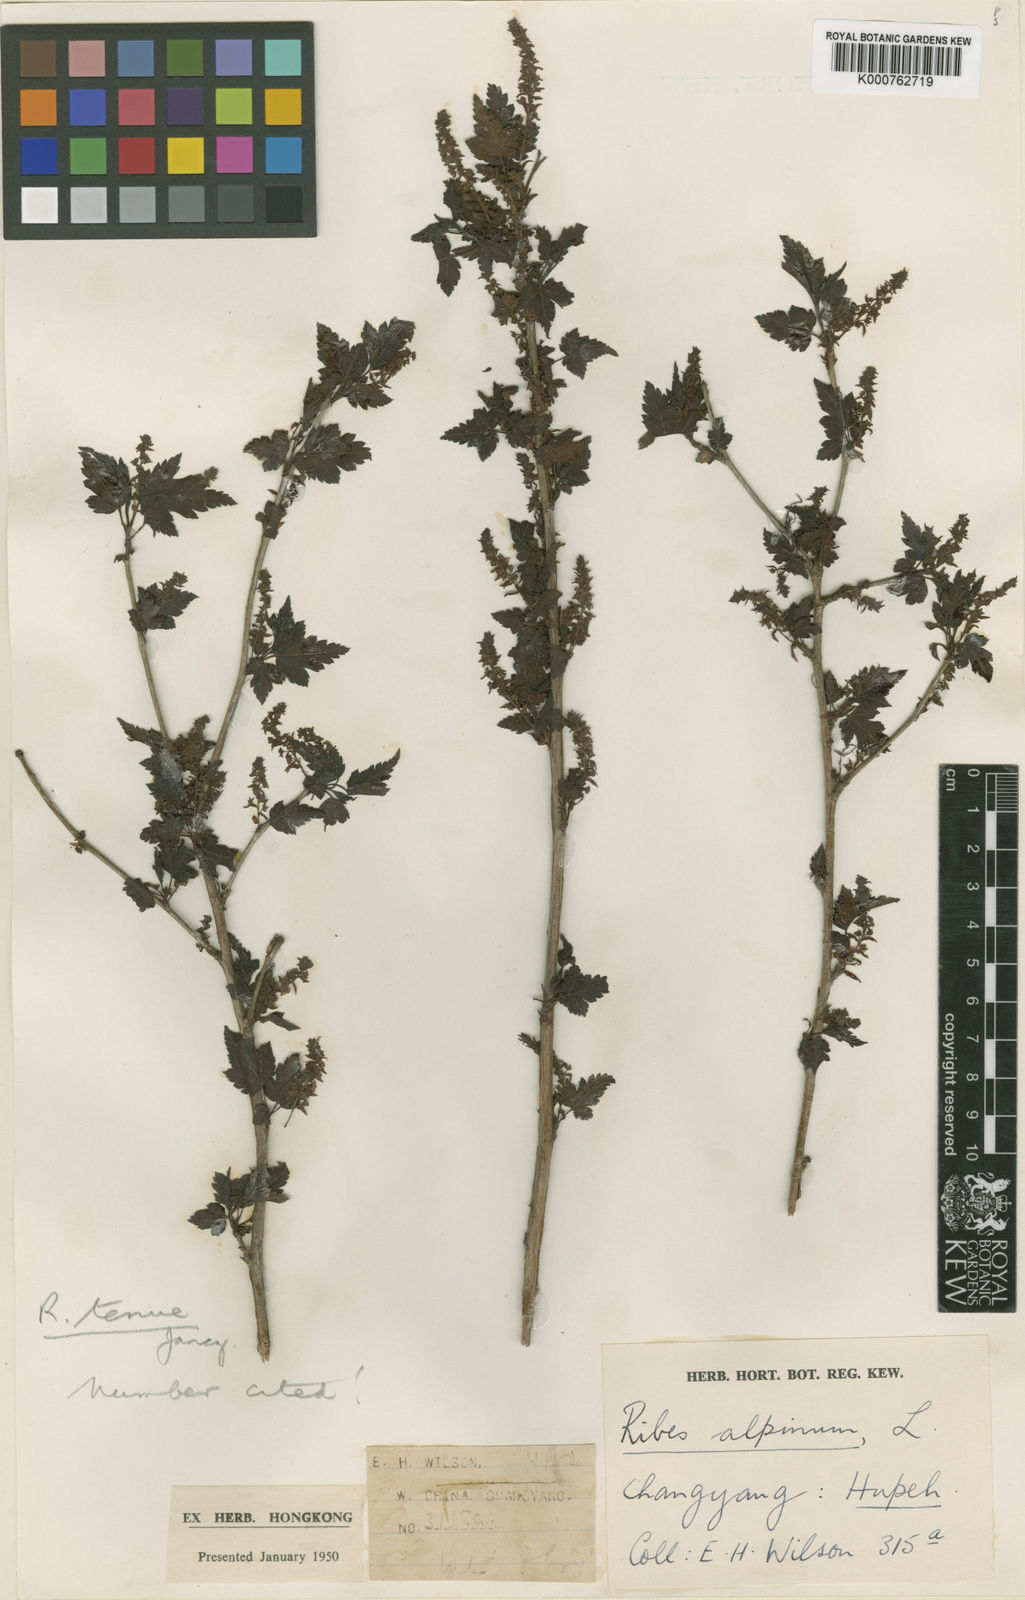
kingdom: Plantae
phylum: Tracheophyta
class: Magnoliopsida
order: Saxifragales
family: Grossulariaceae
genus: Ribes
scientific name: Ribes tenue
